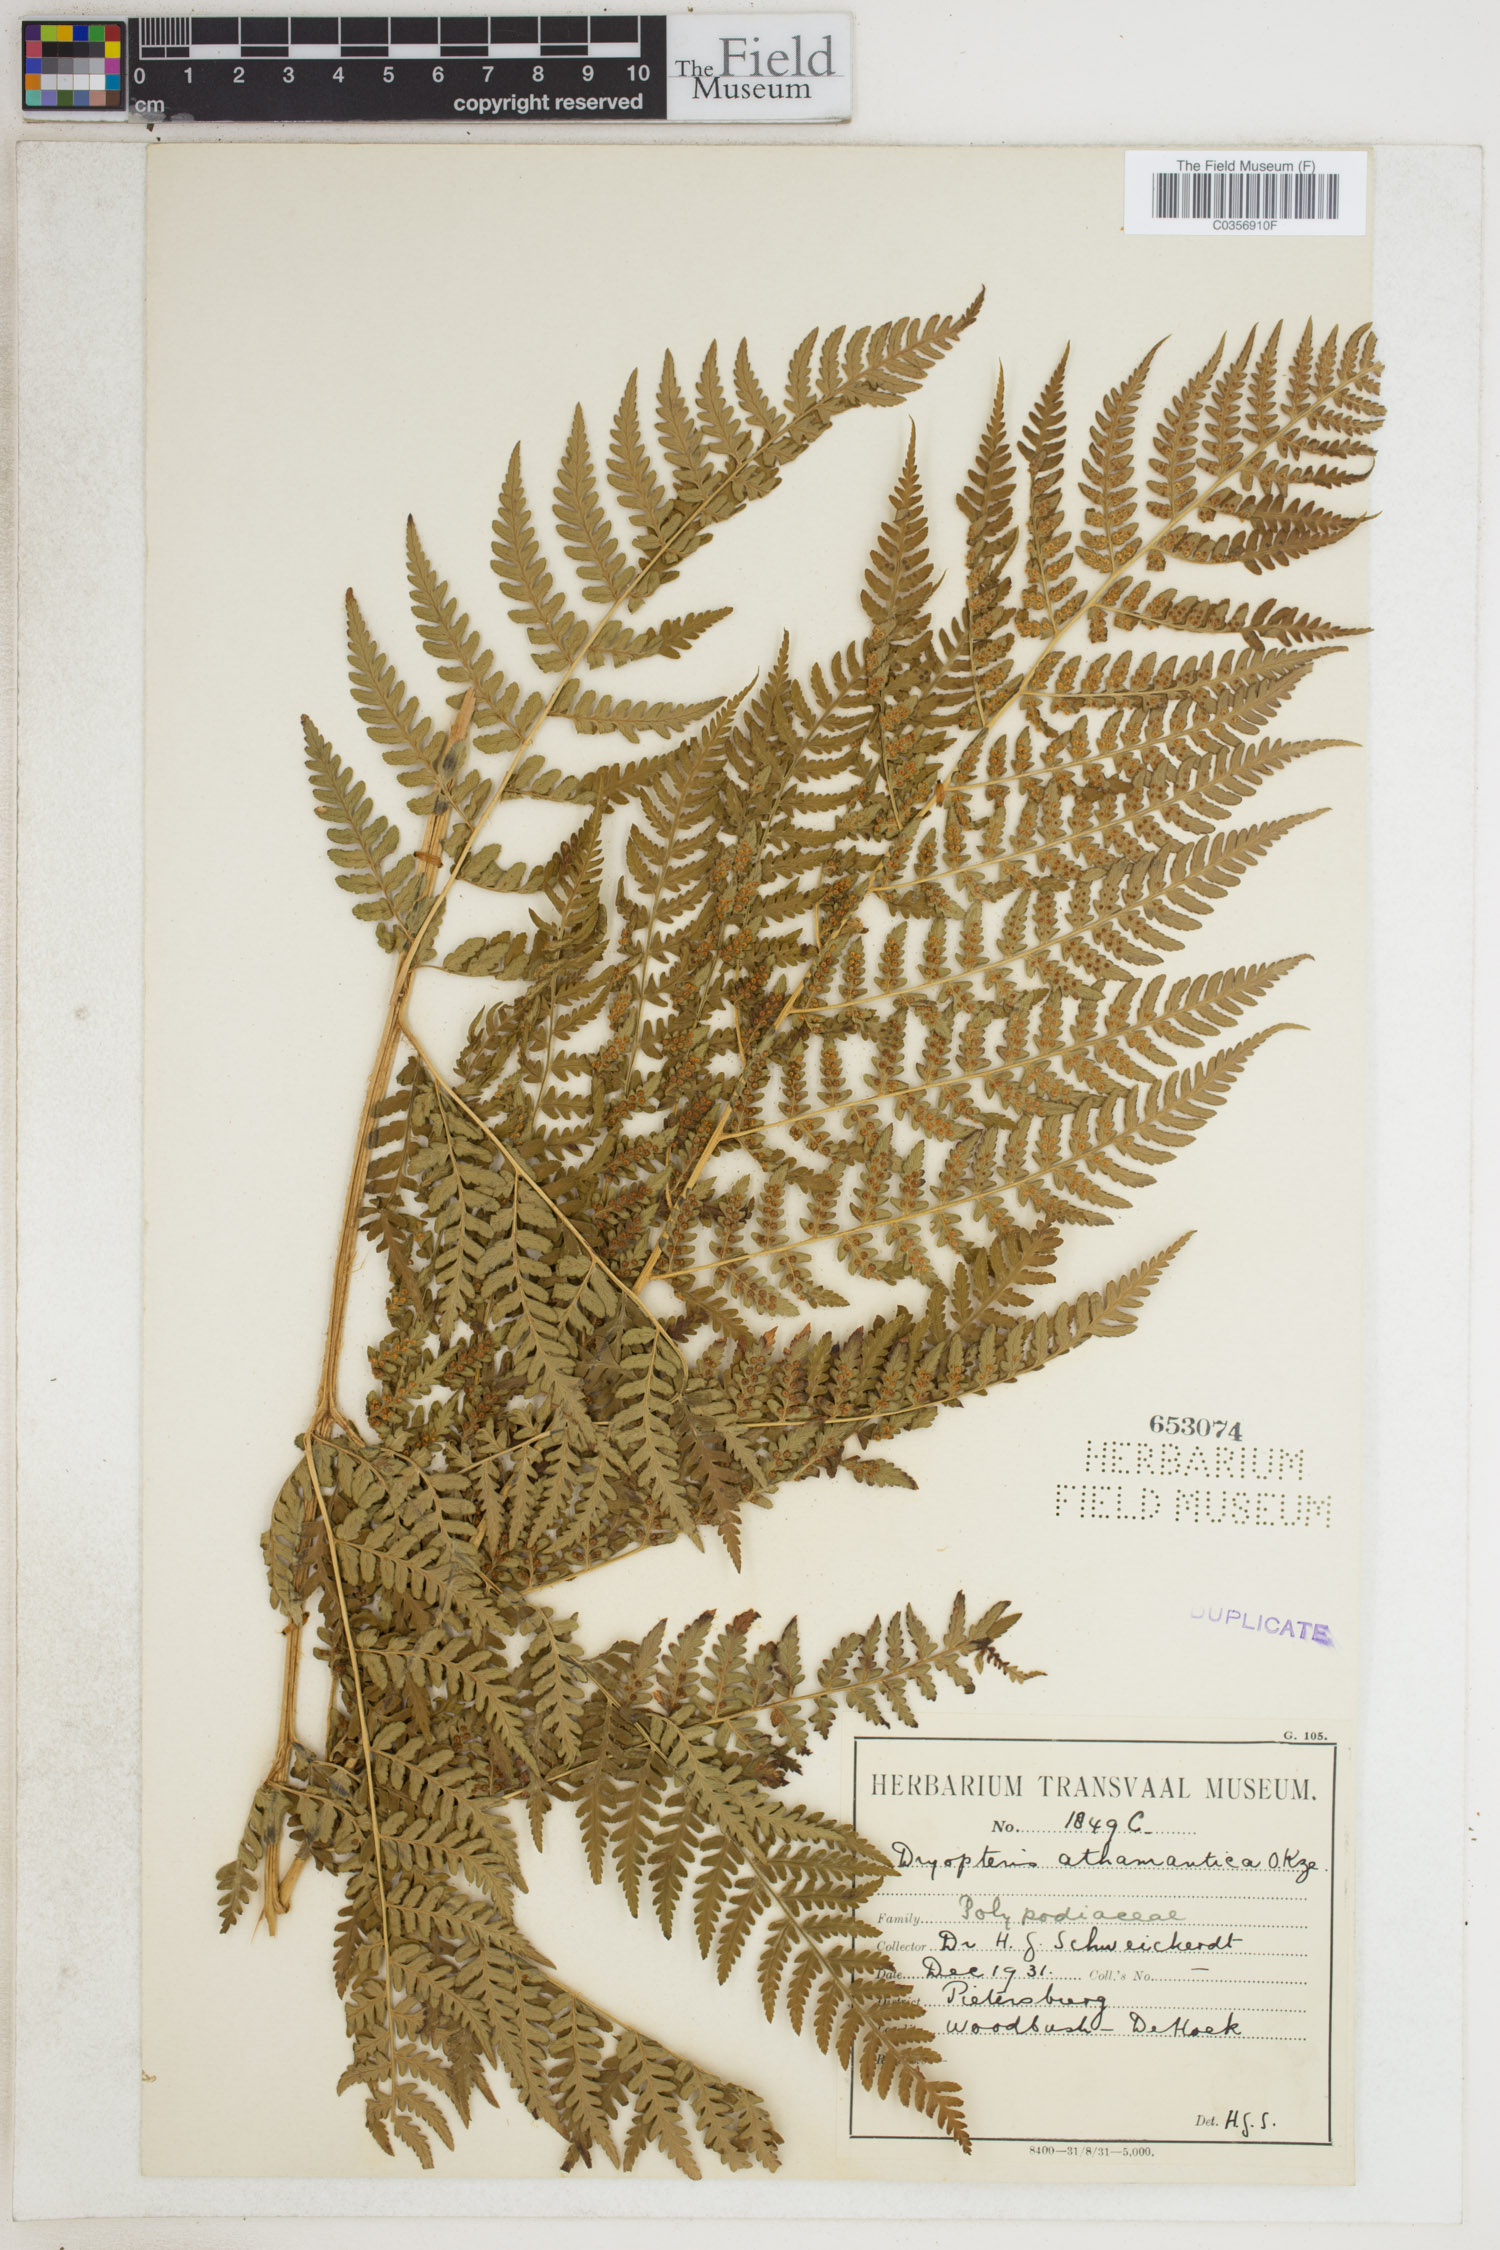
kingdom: Plantae
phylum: Tracheophyta
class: Polypodiopsida
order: Polypodiales
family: Dryopteridaceae
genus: Dryopteris
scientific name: Dryopteris athamantica
